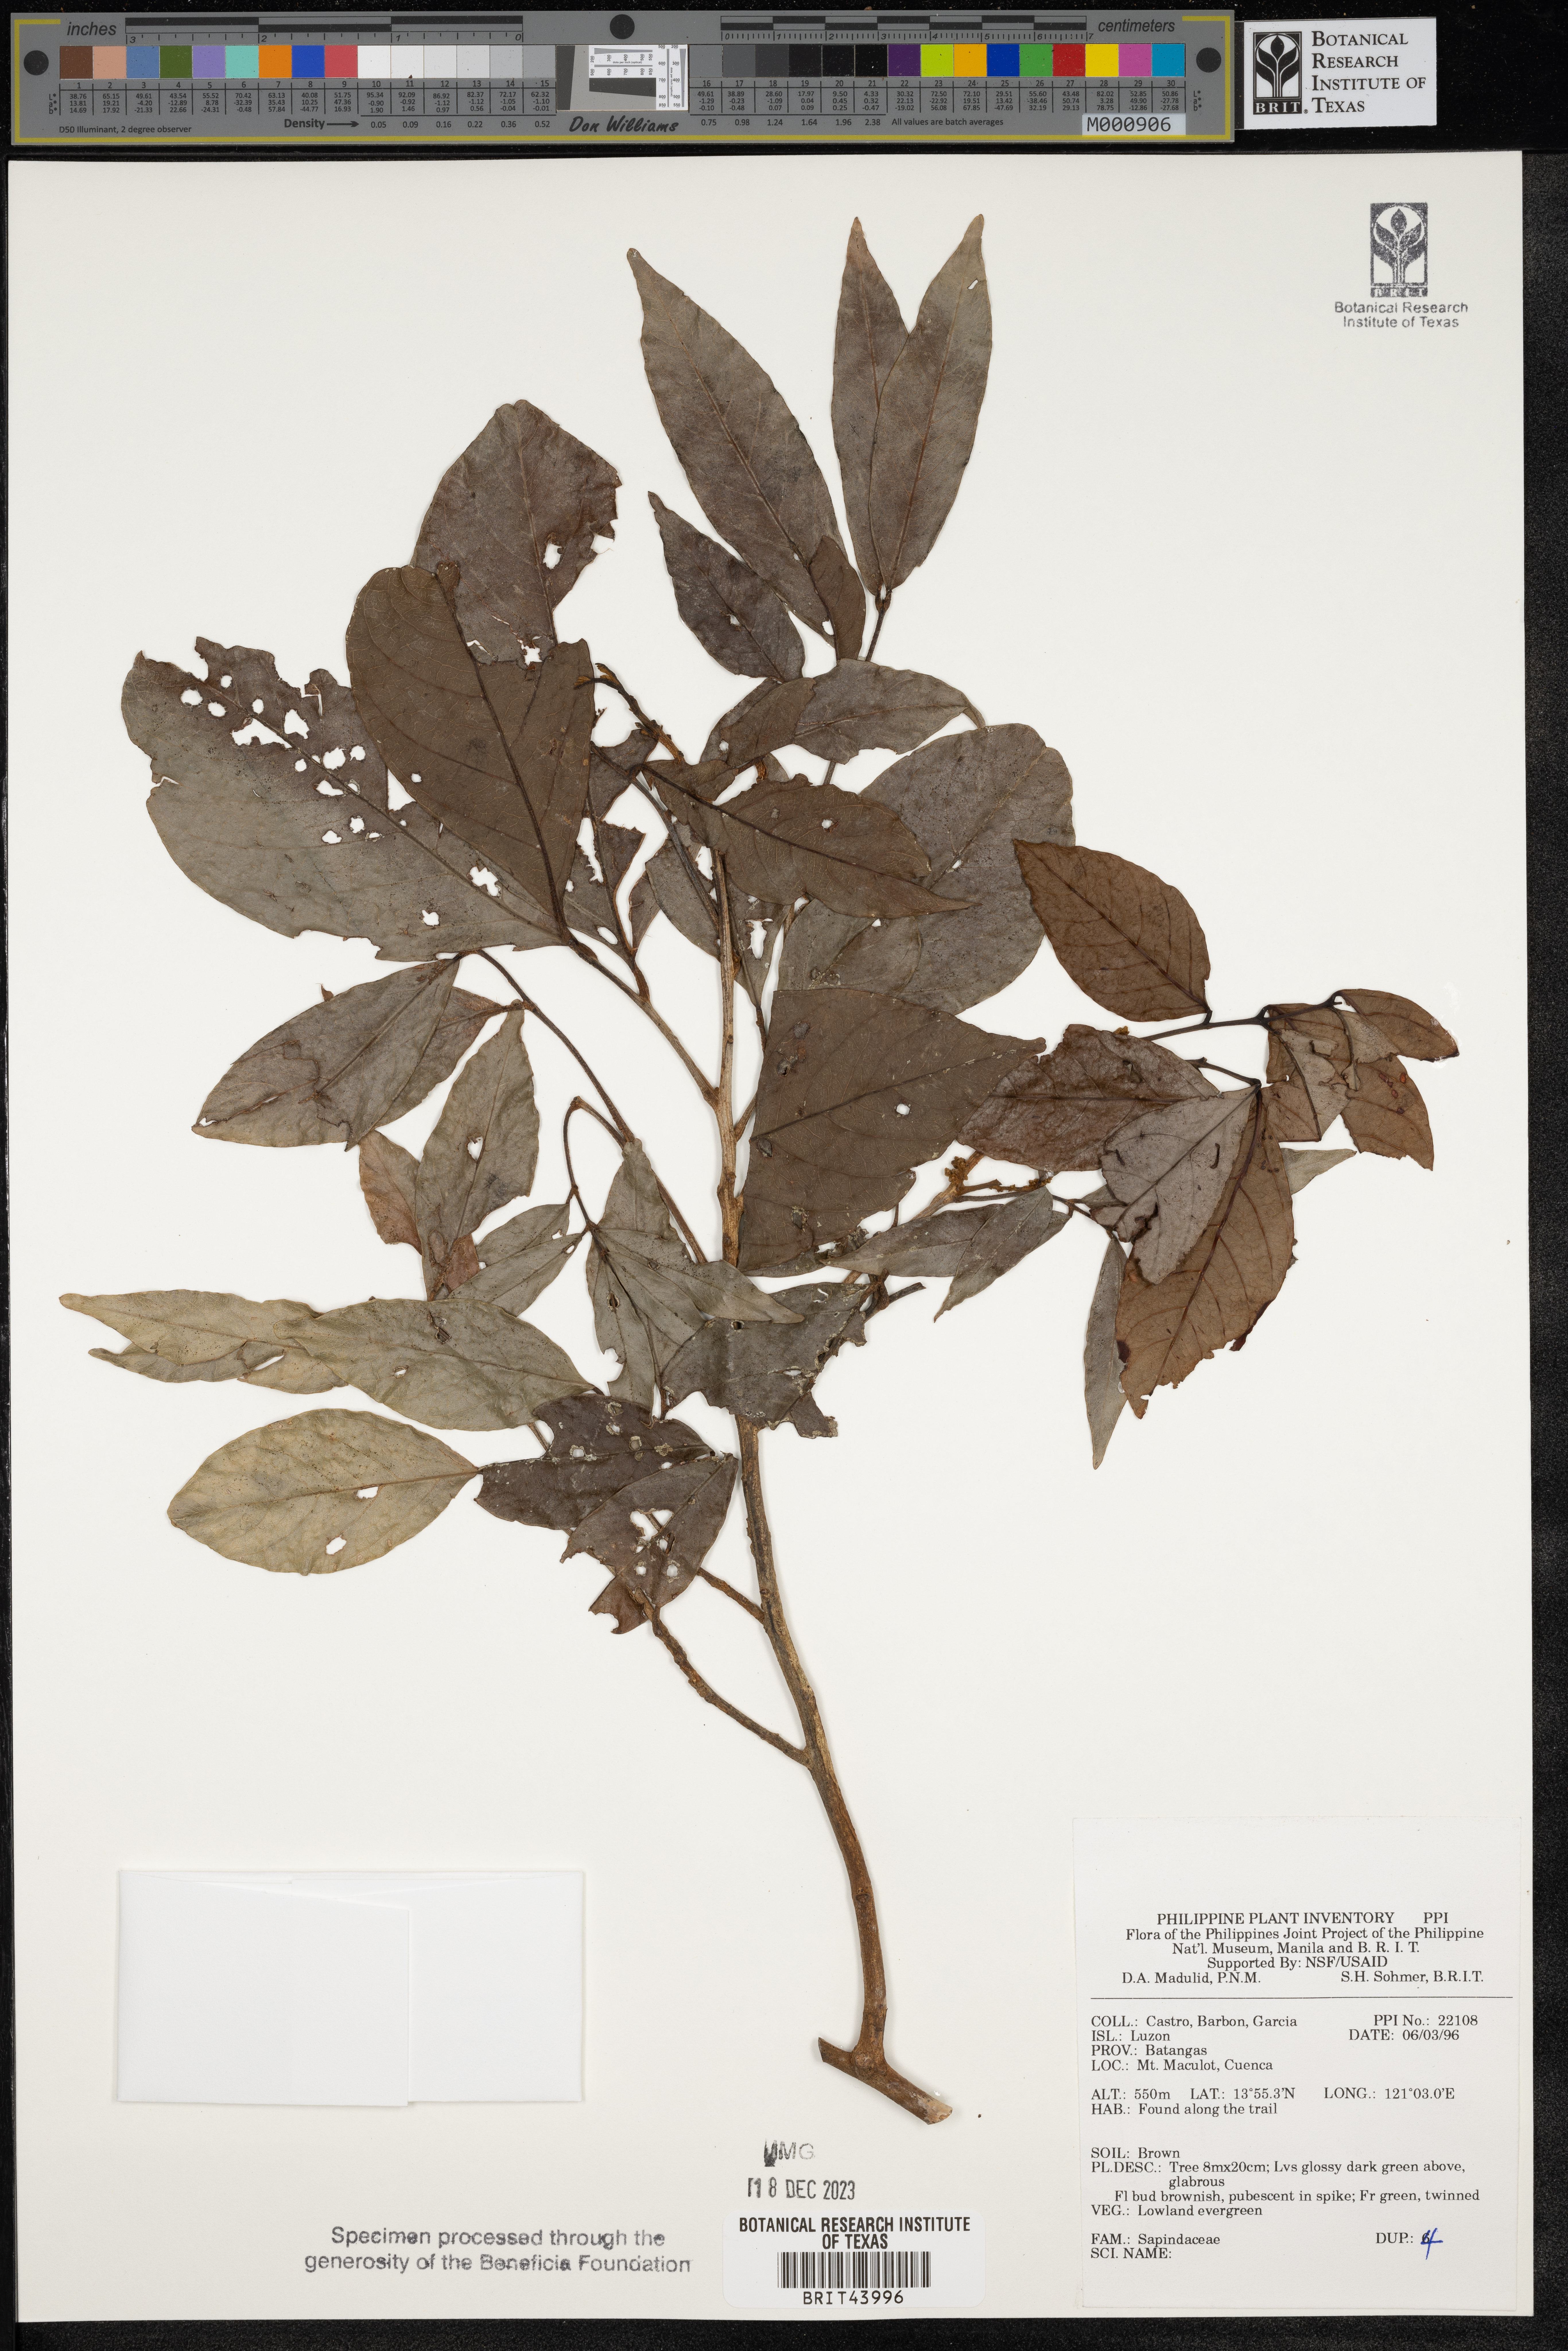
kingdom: Plantae
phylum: Tracheophyta
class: Magnoliopsida
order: Sapindales
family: Sapindaceae
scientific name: Sapindaceae
